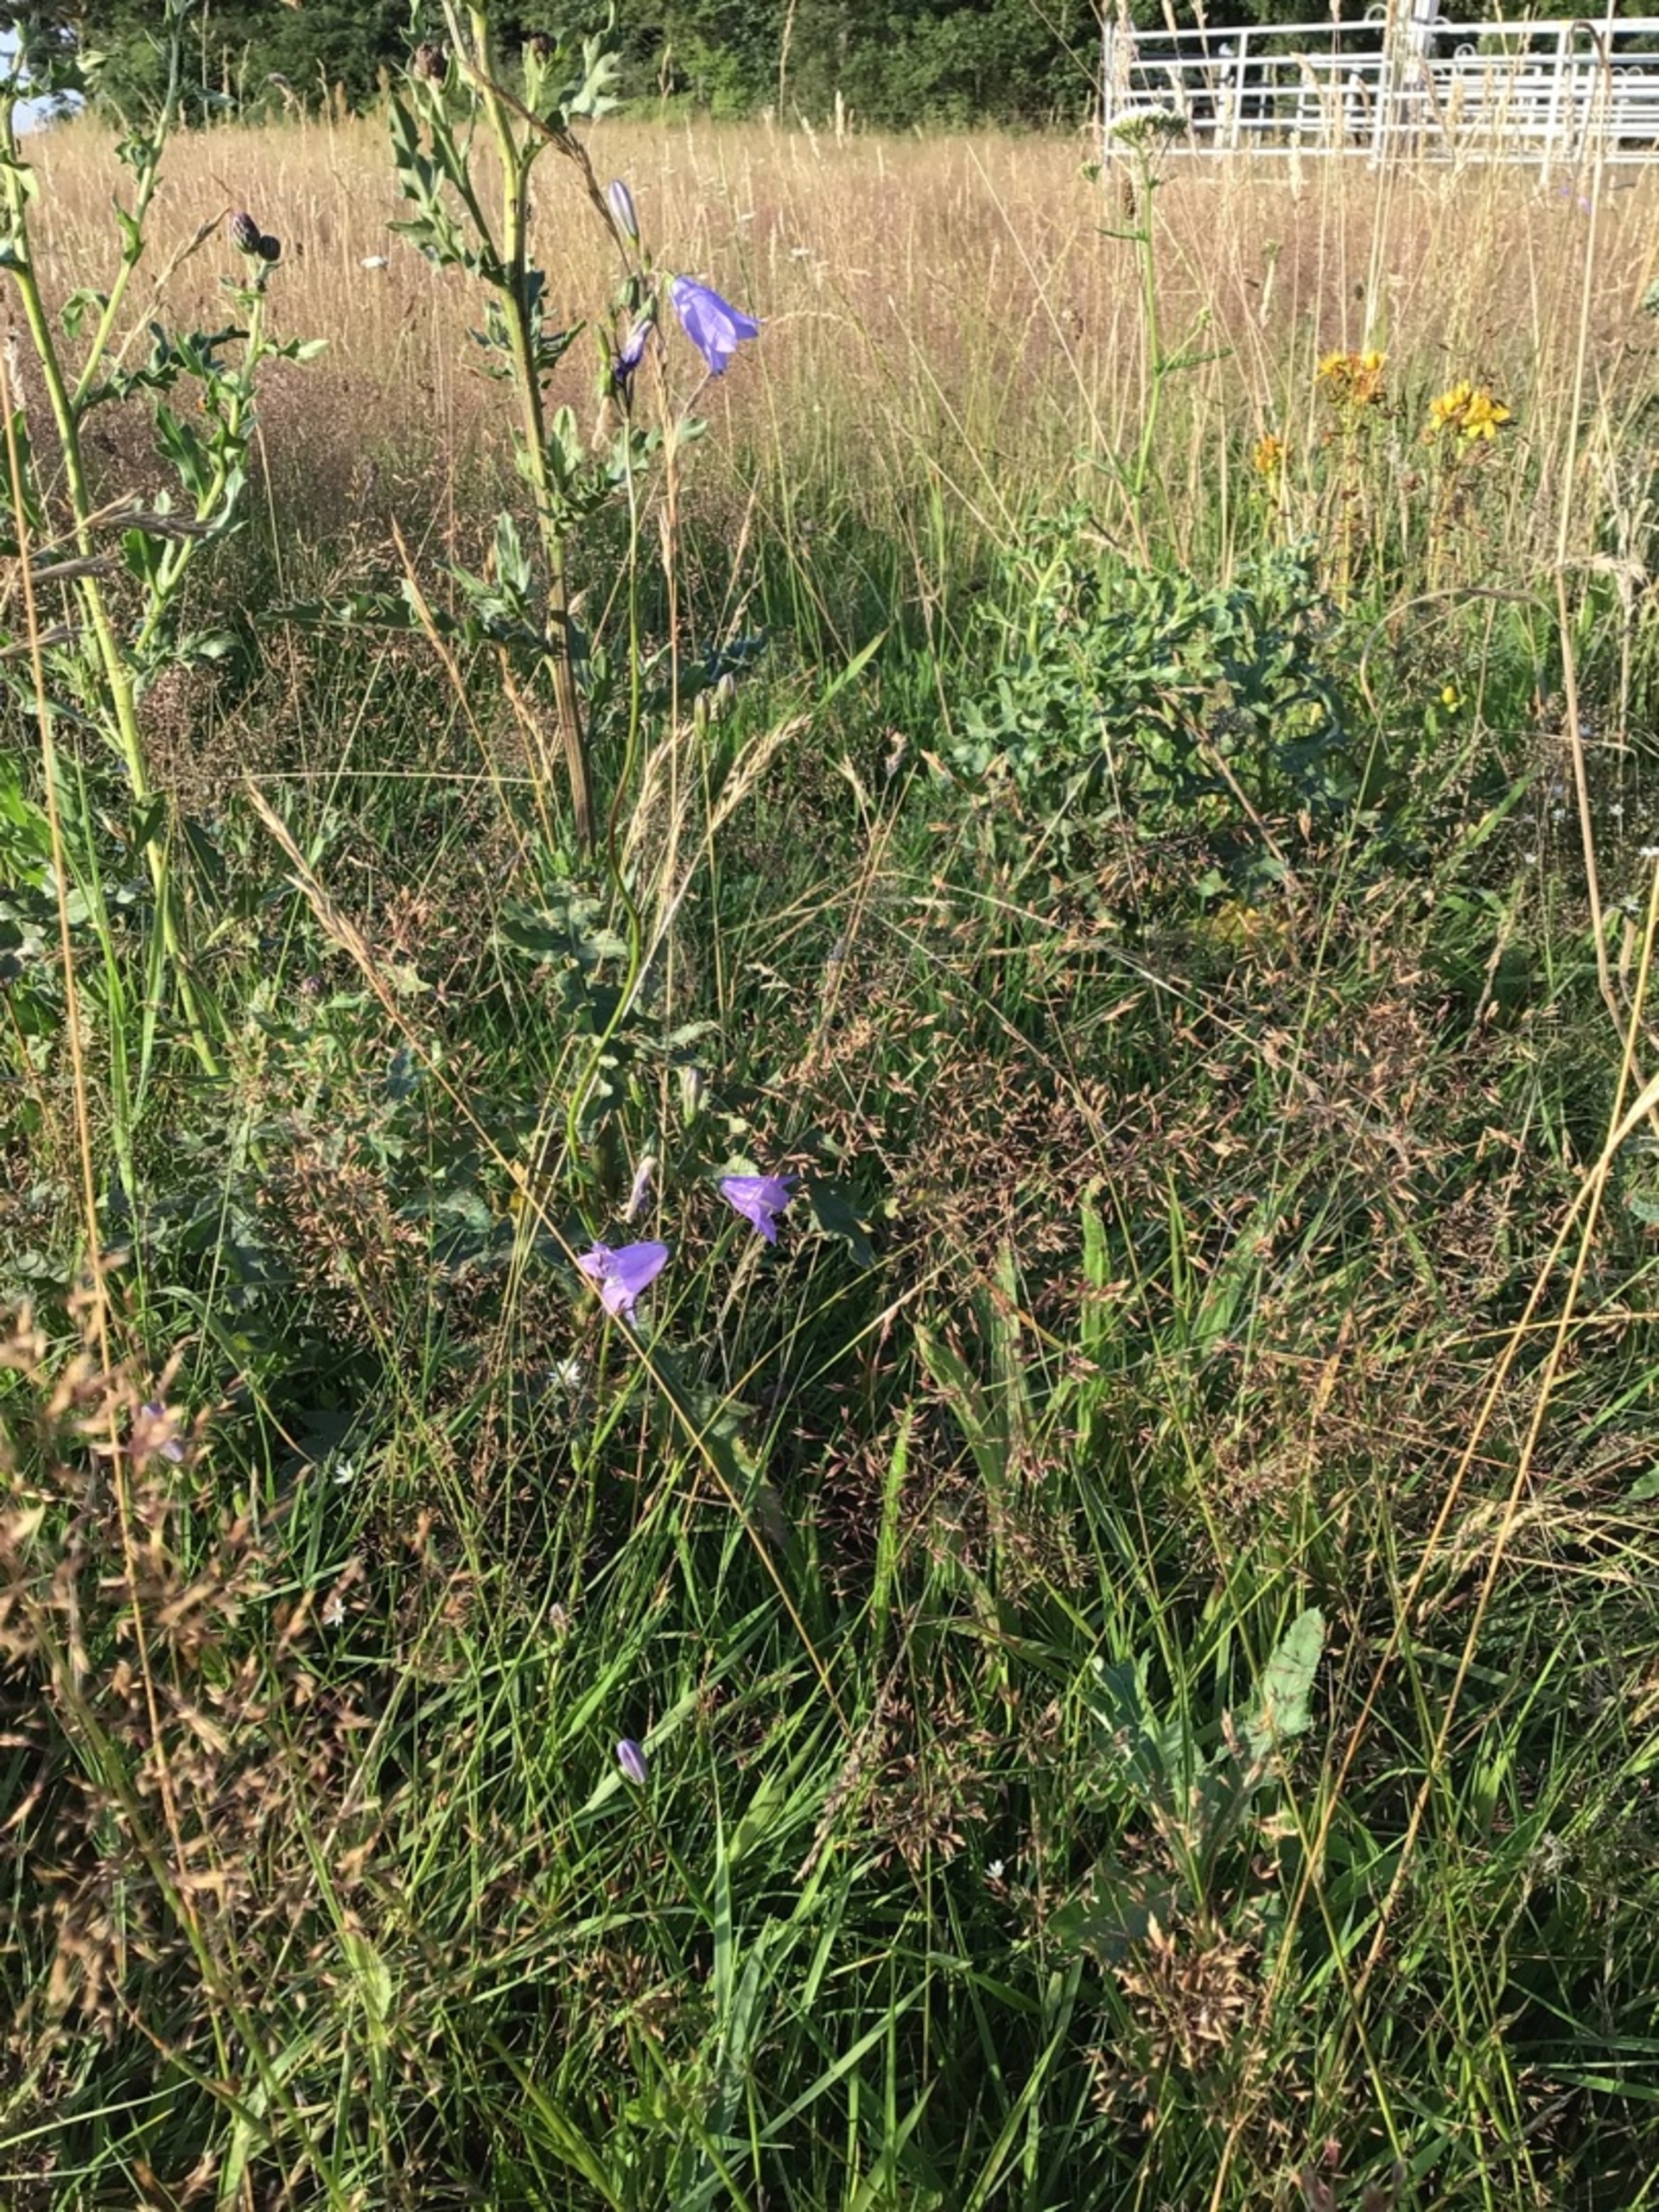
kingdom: Plantae
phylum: Tracheophyta
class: Magnoliopsida
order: Asterales
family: Campanulaceae
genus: Campanula
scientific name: Campanula rotundifolia
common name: Liden klokke
